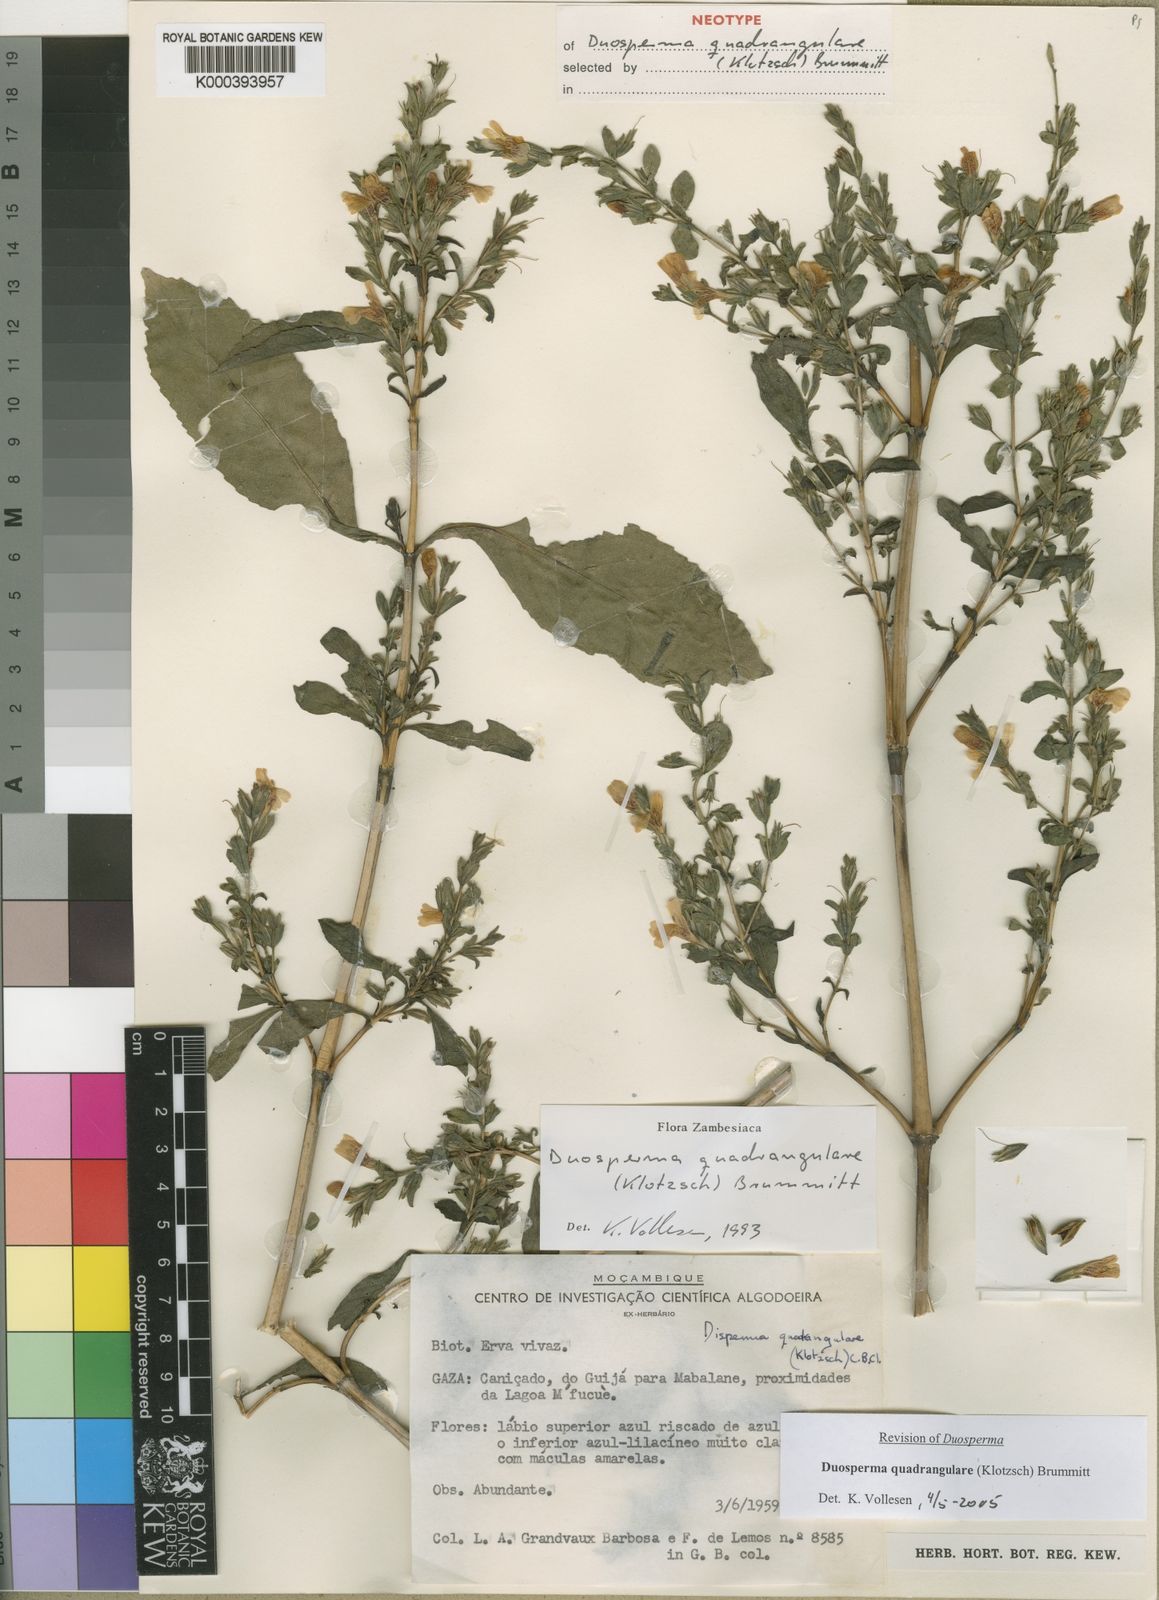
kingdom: Plantae
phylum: Tracheophyta
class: Magnoliopsida
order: Lamiales
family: Acanthaceae
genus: Duosperma
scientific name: Duosperma quadrangulare
